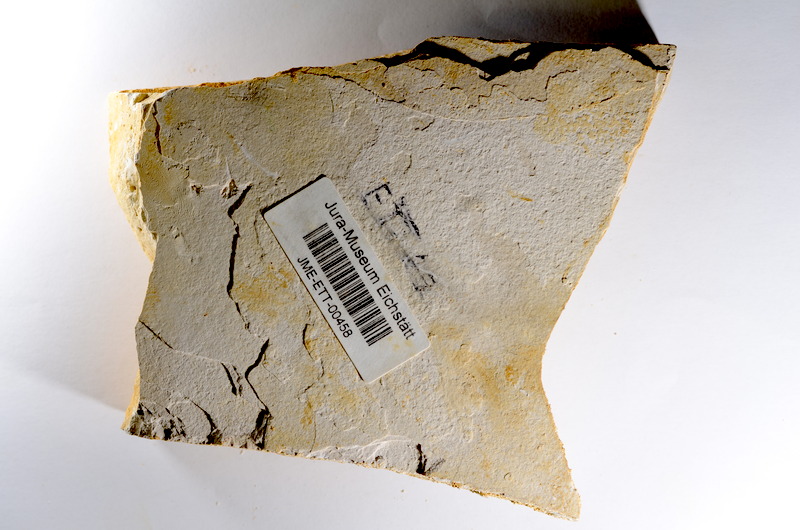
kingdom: Animalia
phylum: Chordata
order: Salmoniformes
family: Orthogonikleithridae
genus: Orthogonikleithrus
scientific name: Orthogonikleithrus hoelli
